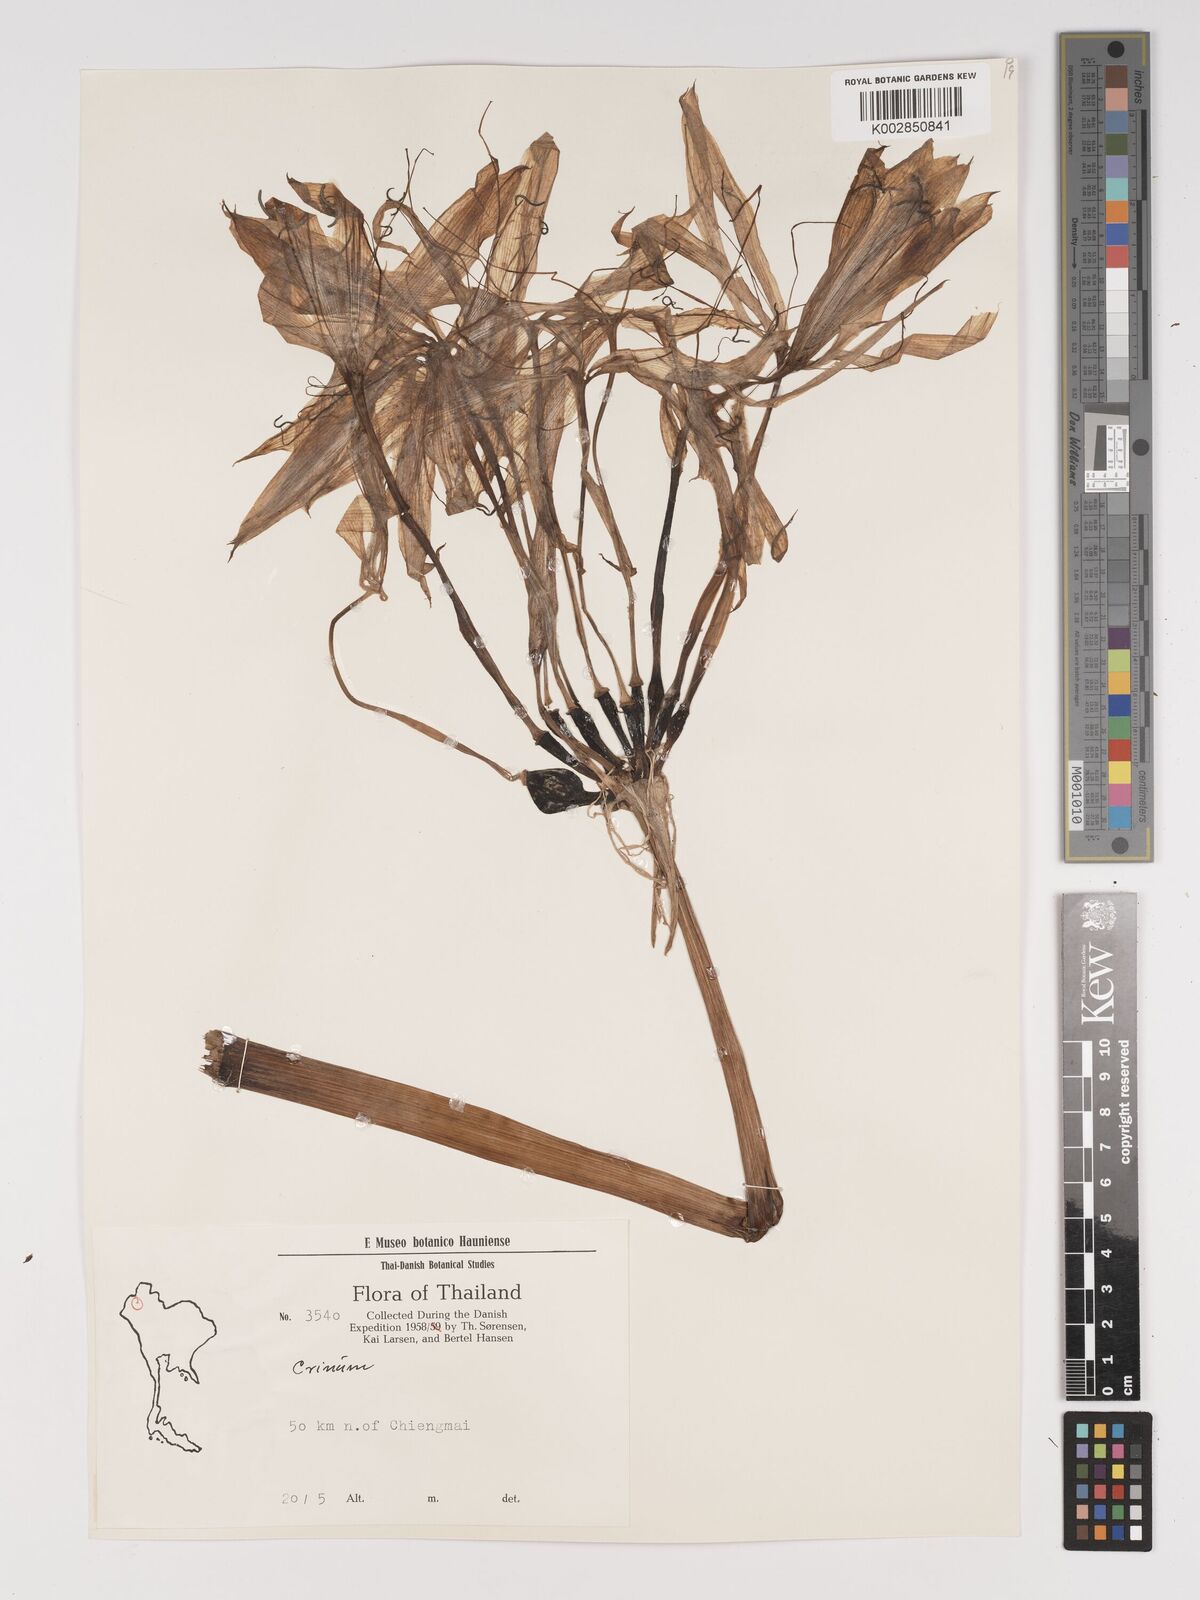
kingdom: Plantae
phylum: Tracheophyta
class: Liliopsida
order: Asparagales
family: Amaryllidaceae
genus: Crinum
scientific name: Crinum
